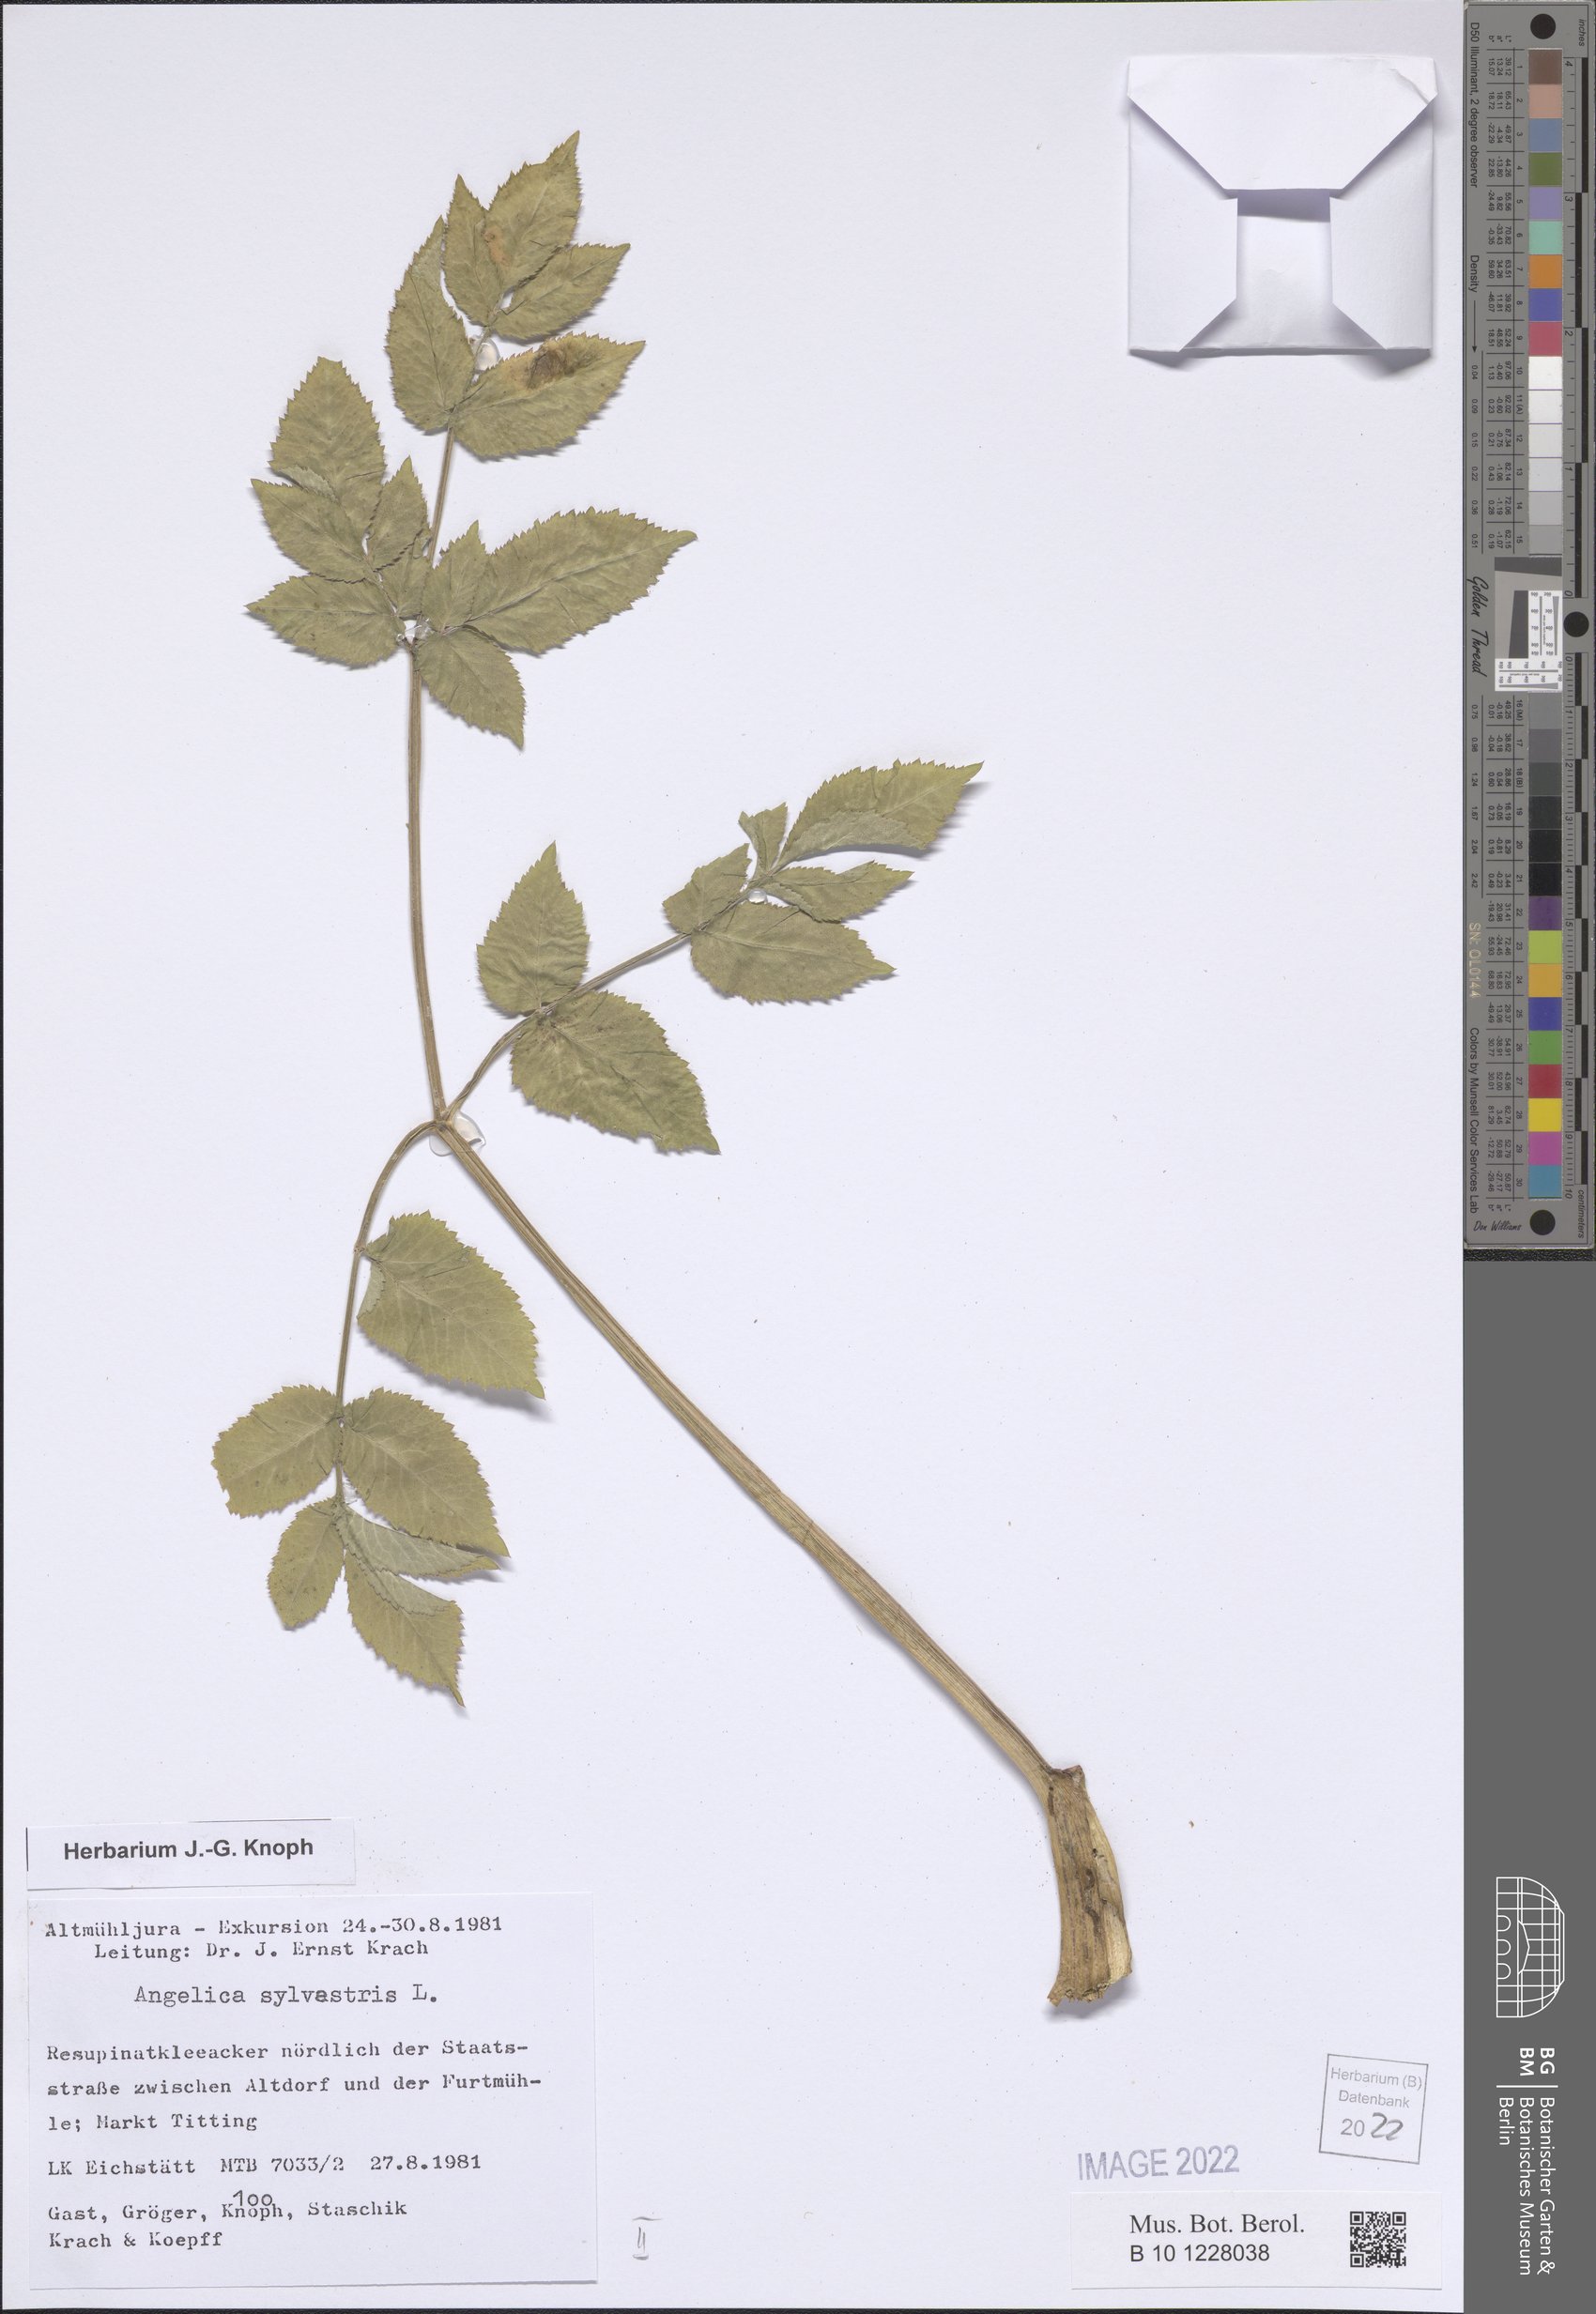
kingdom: Plantae
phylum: Tracheophyta
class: Magnoliopsida
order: Apiales
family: Apiaceae
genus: Angelica
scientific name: Angelica sylvestris
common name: Wild angelica
